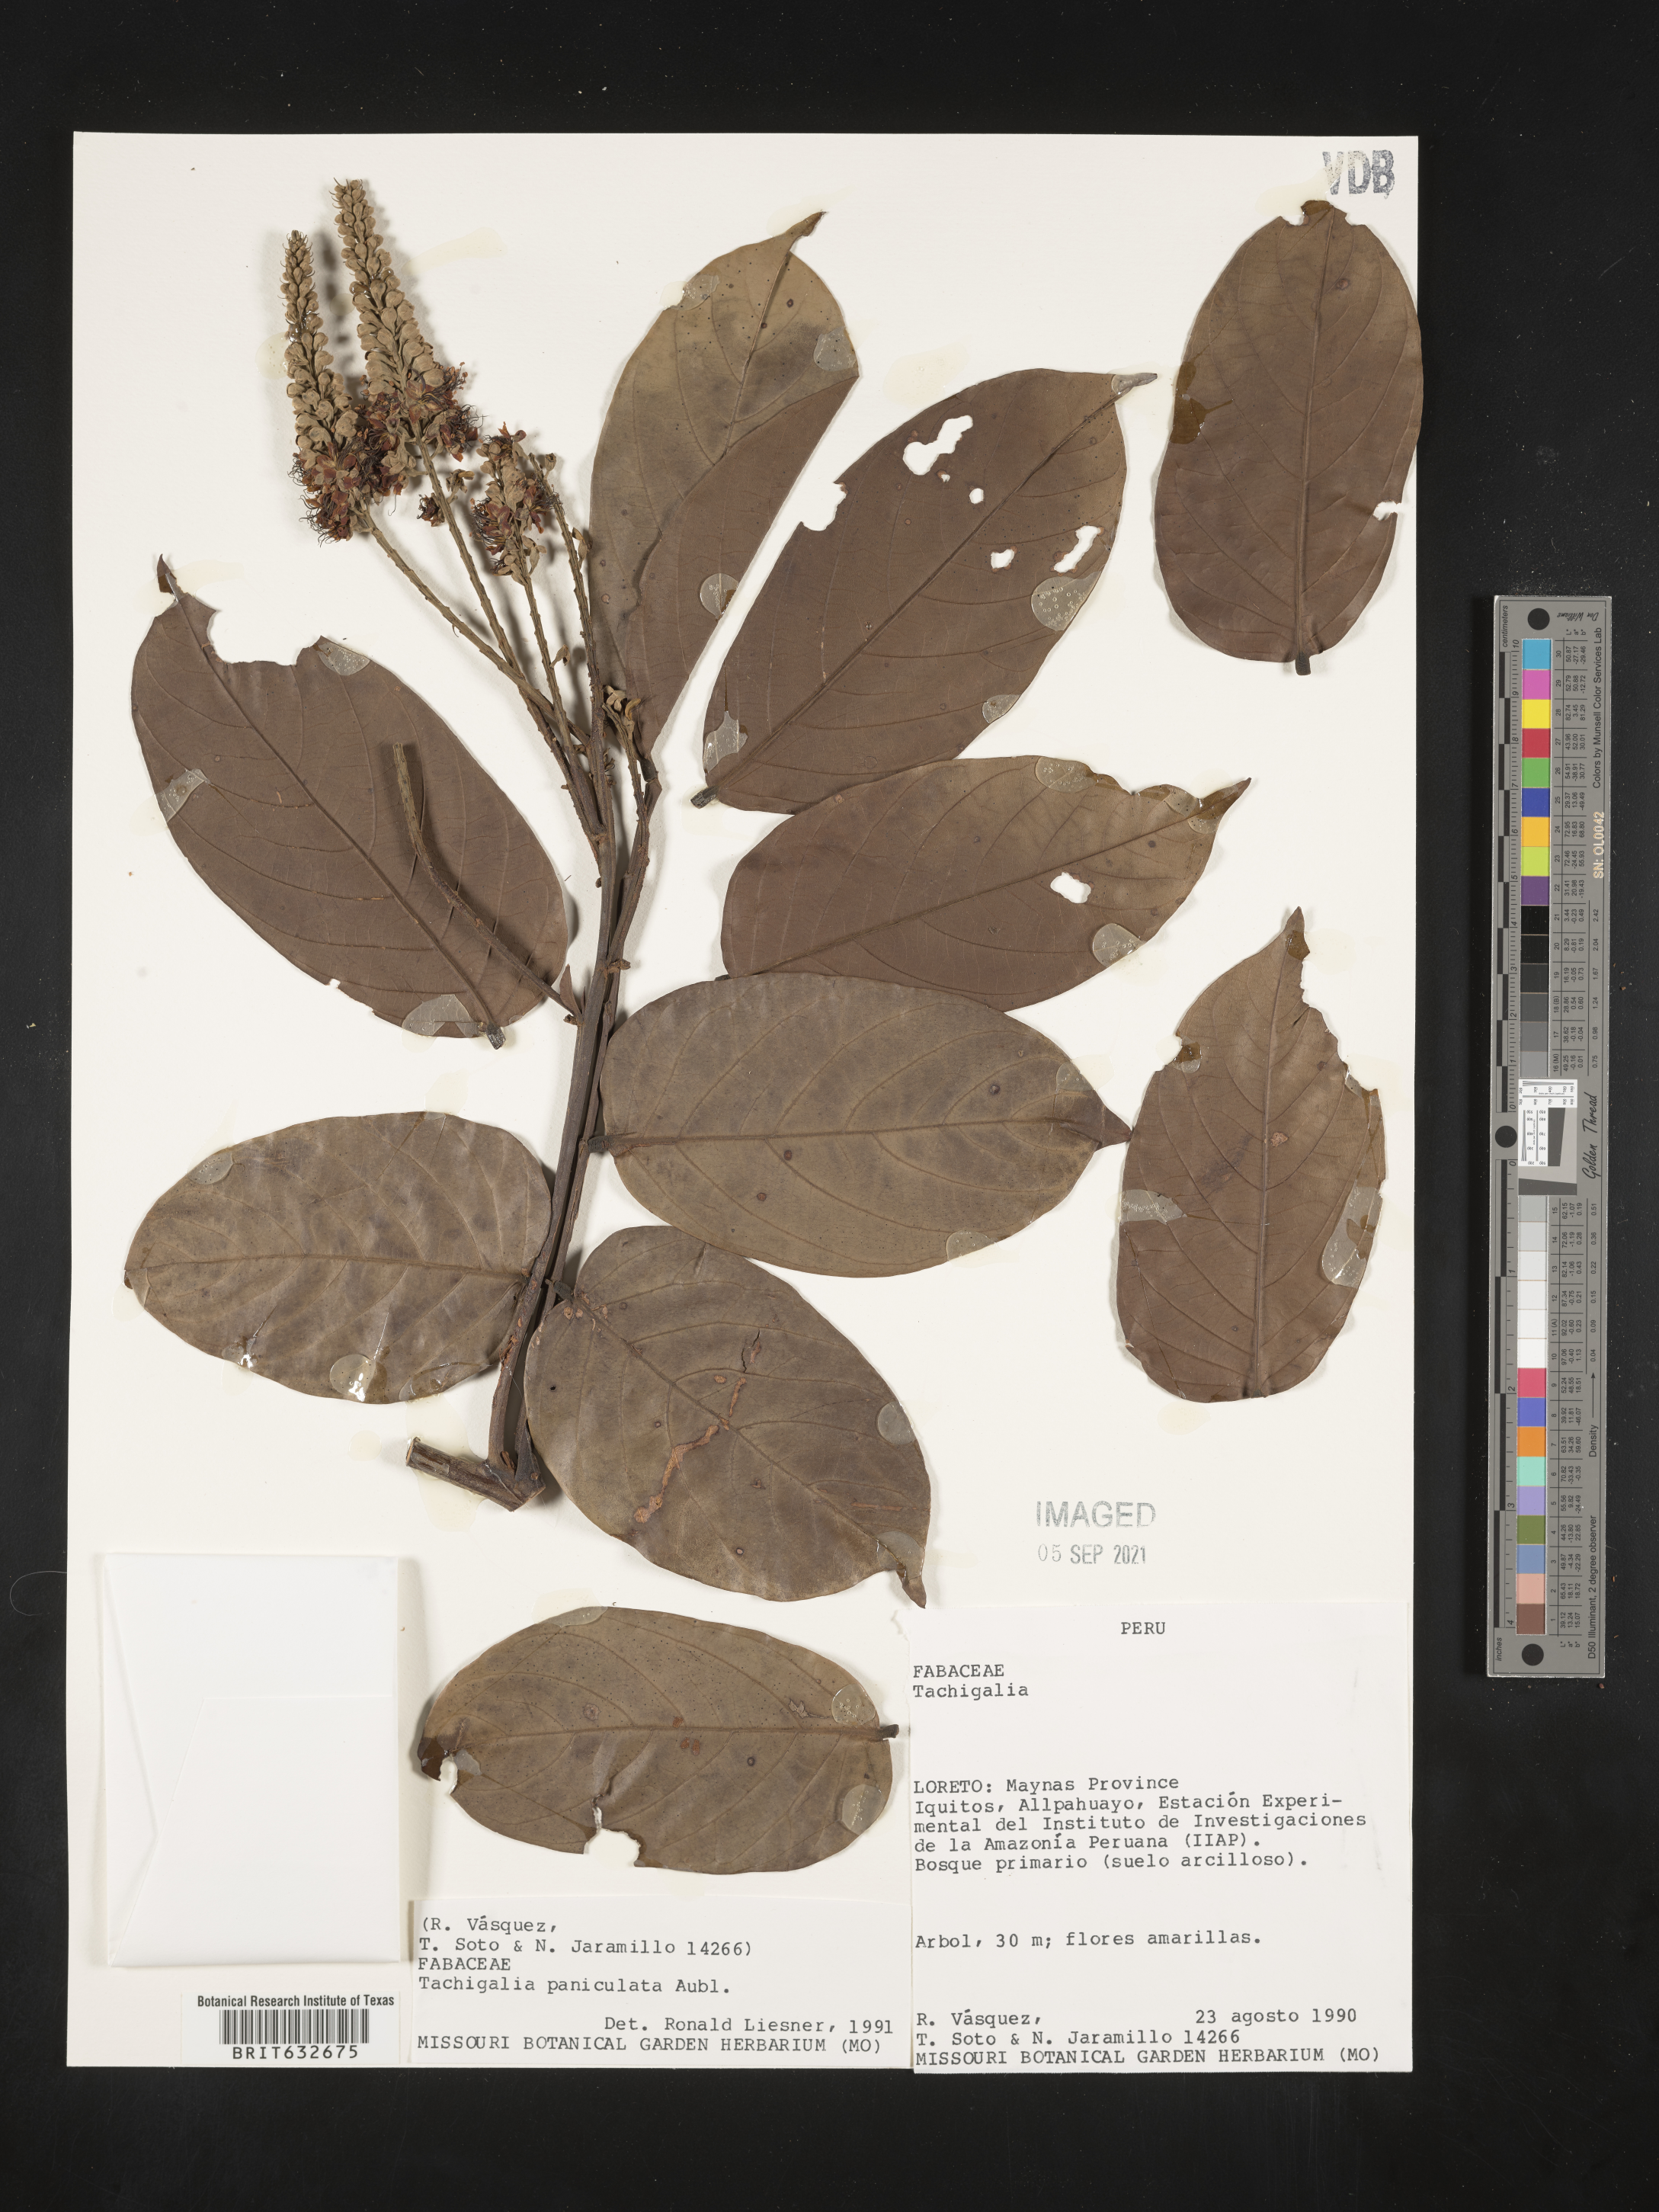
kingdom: Plantae
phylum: Tracheophyta
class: Magnoliopsida
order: Fabales
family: Fabaceae
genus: Tachigali
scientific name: Tachigali
